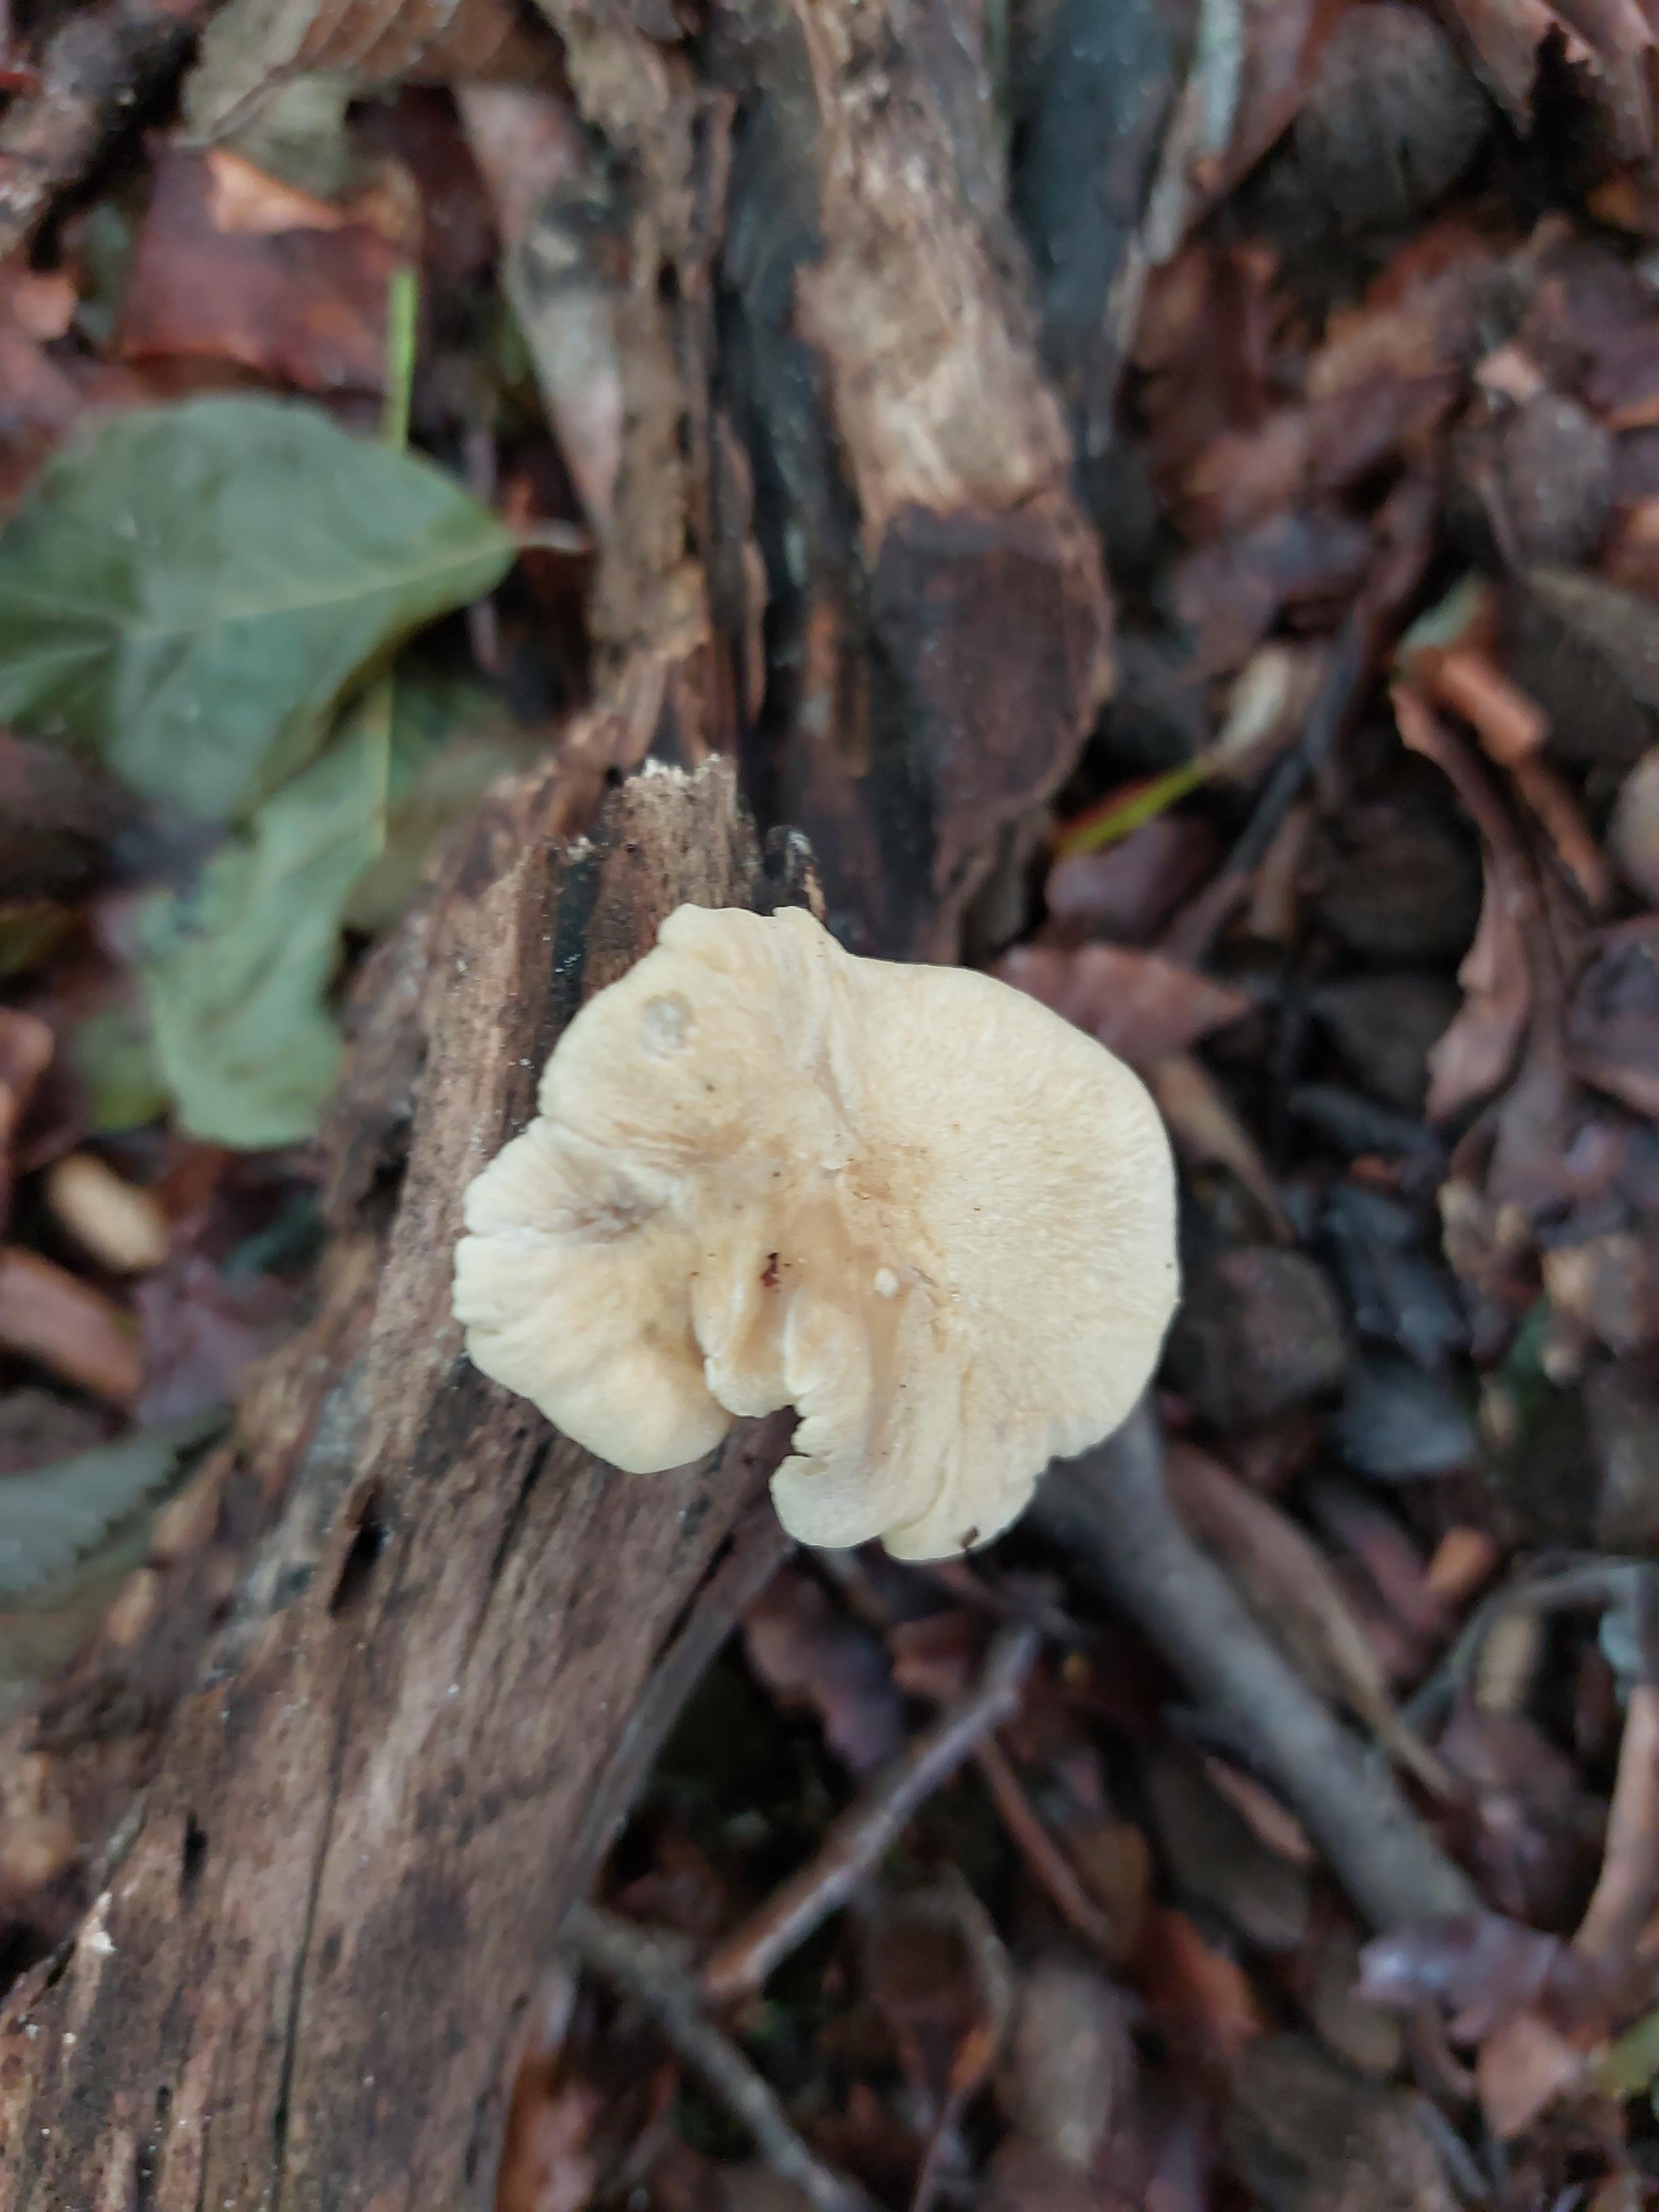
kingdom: Fungi
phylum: Basidiomycota
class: Agaricomycetes
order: Polyporales
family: Polyporaceae
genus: Cerioporus
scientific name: Cerioporus varius
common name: foranderlig stilkporesvamp
